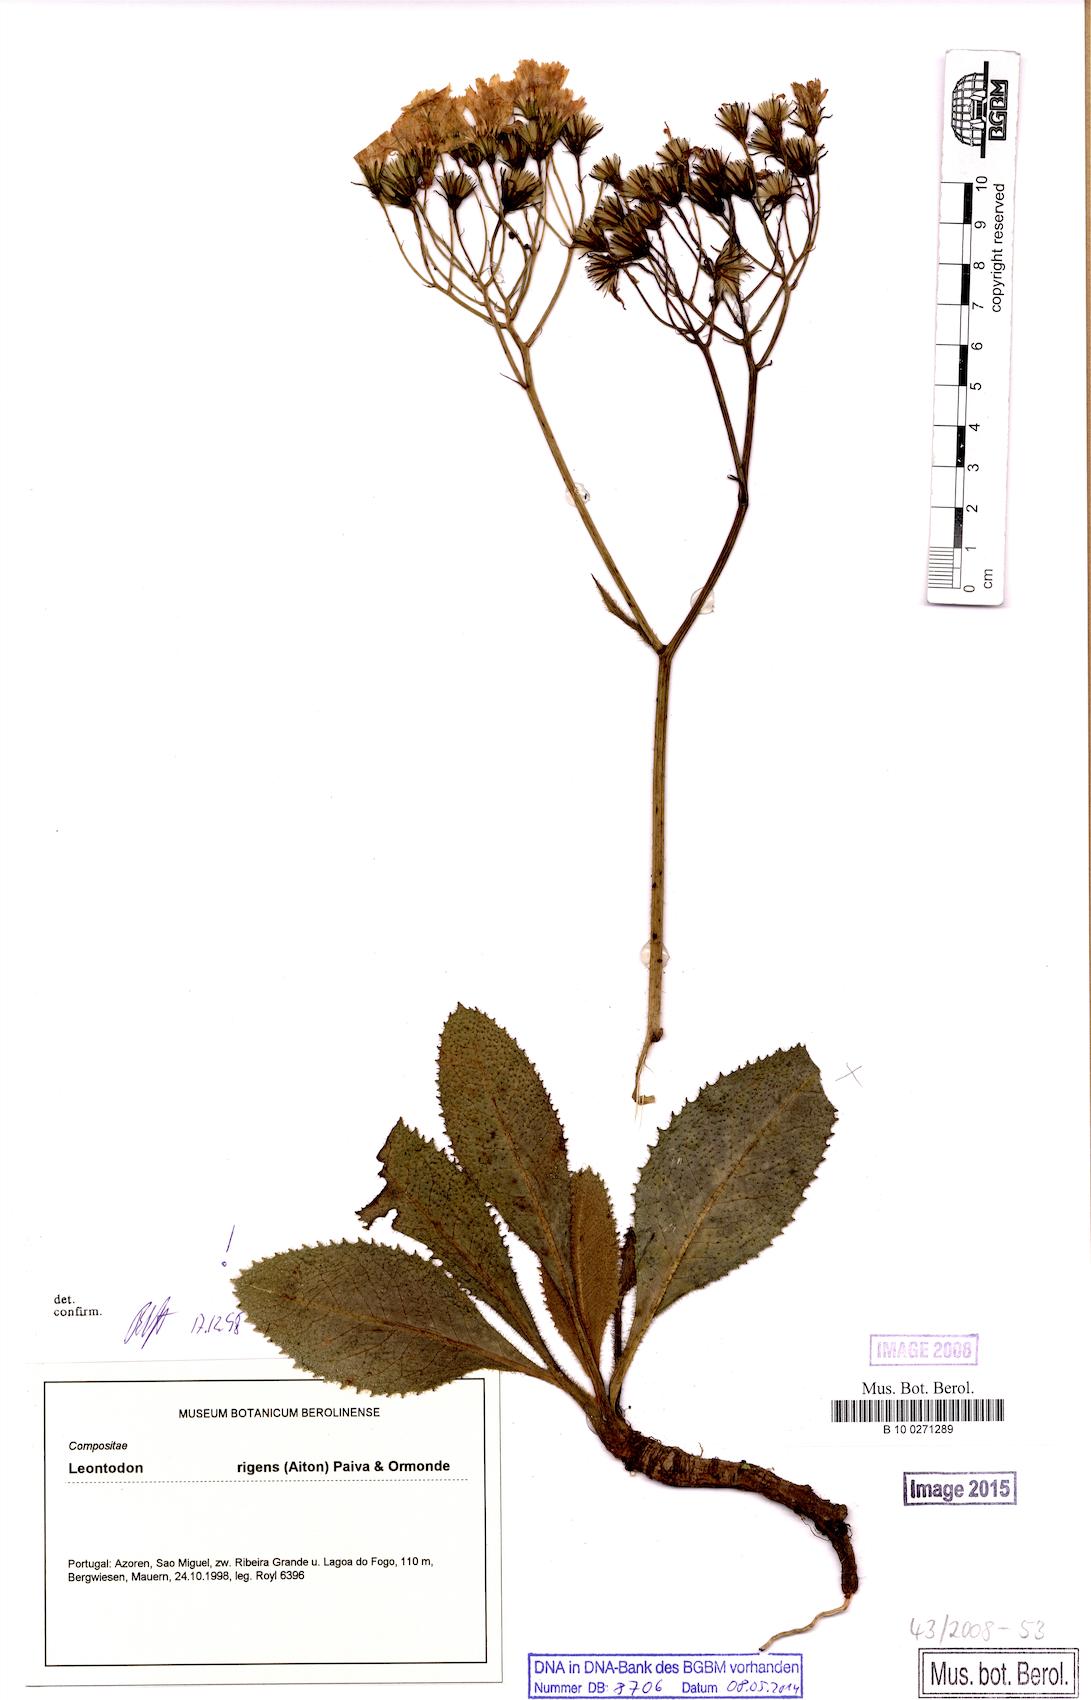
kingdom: Plantae
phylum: Tracheophyta
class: Magnoliopsida
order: Asterales
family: Asteraceae
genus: Leontodon
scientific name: Leontodon rigens
